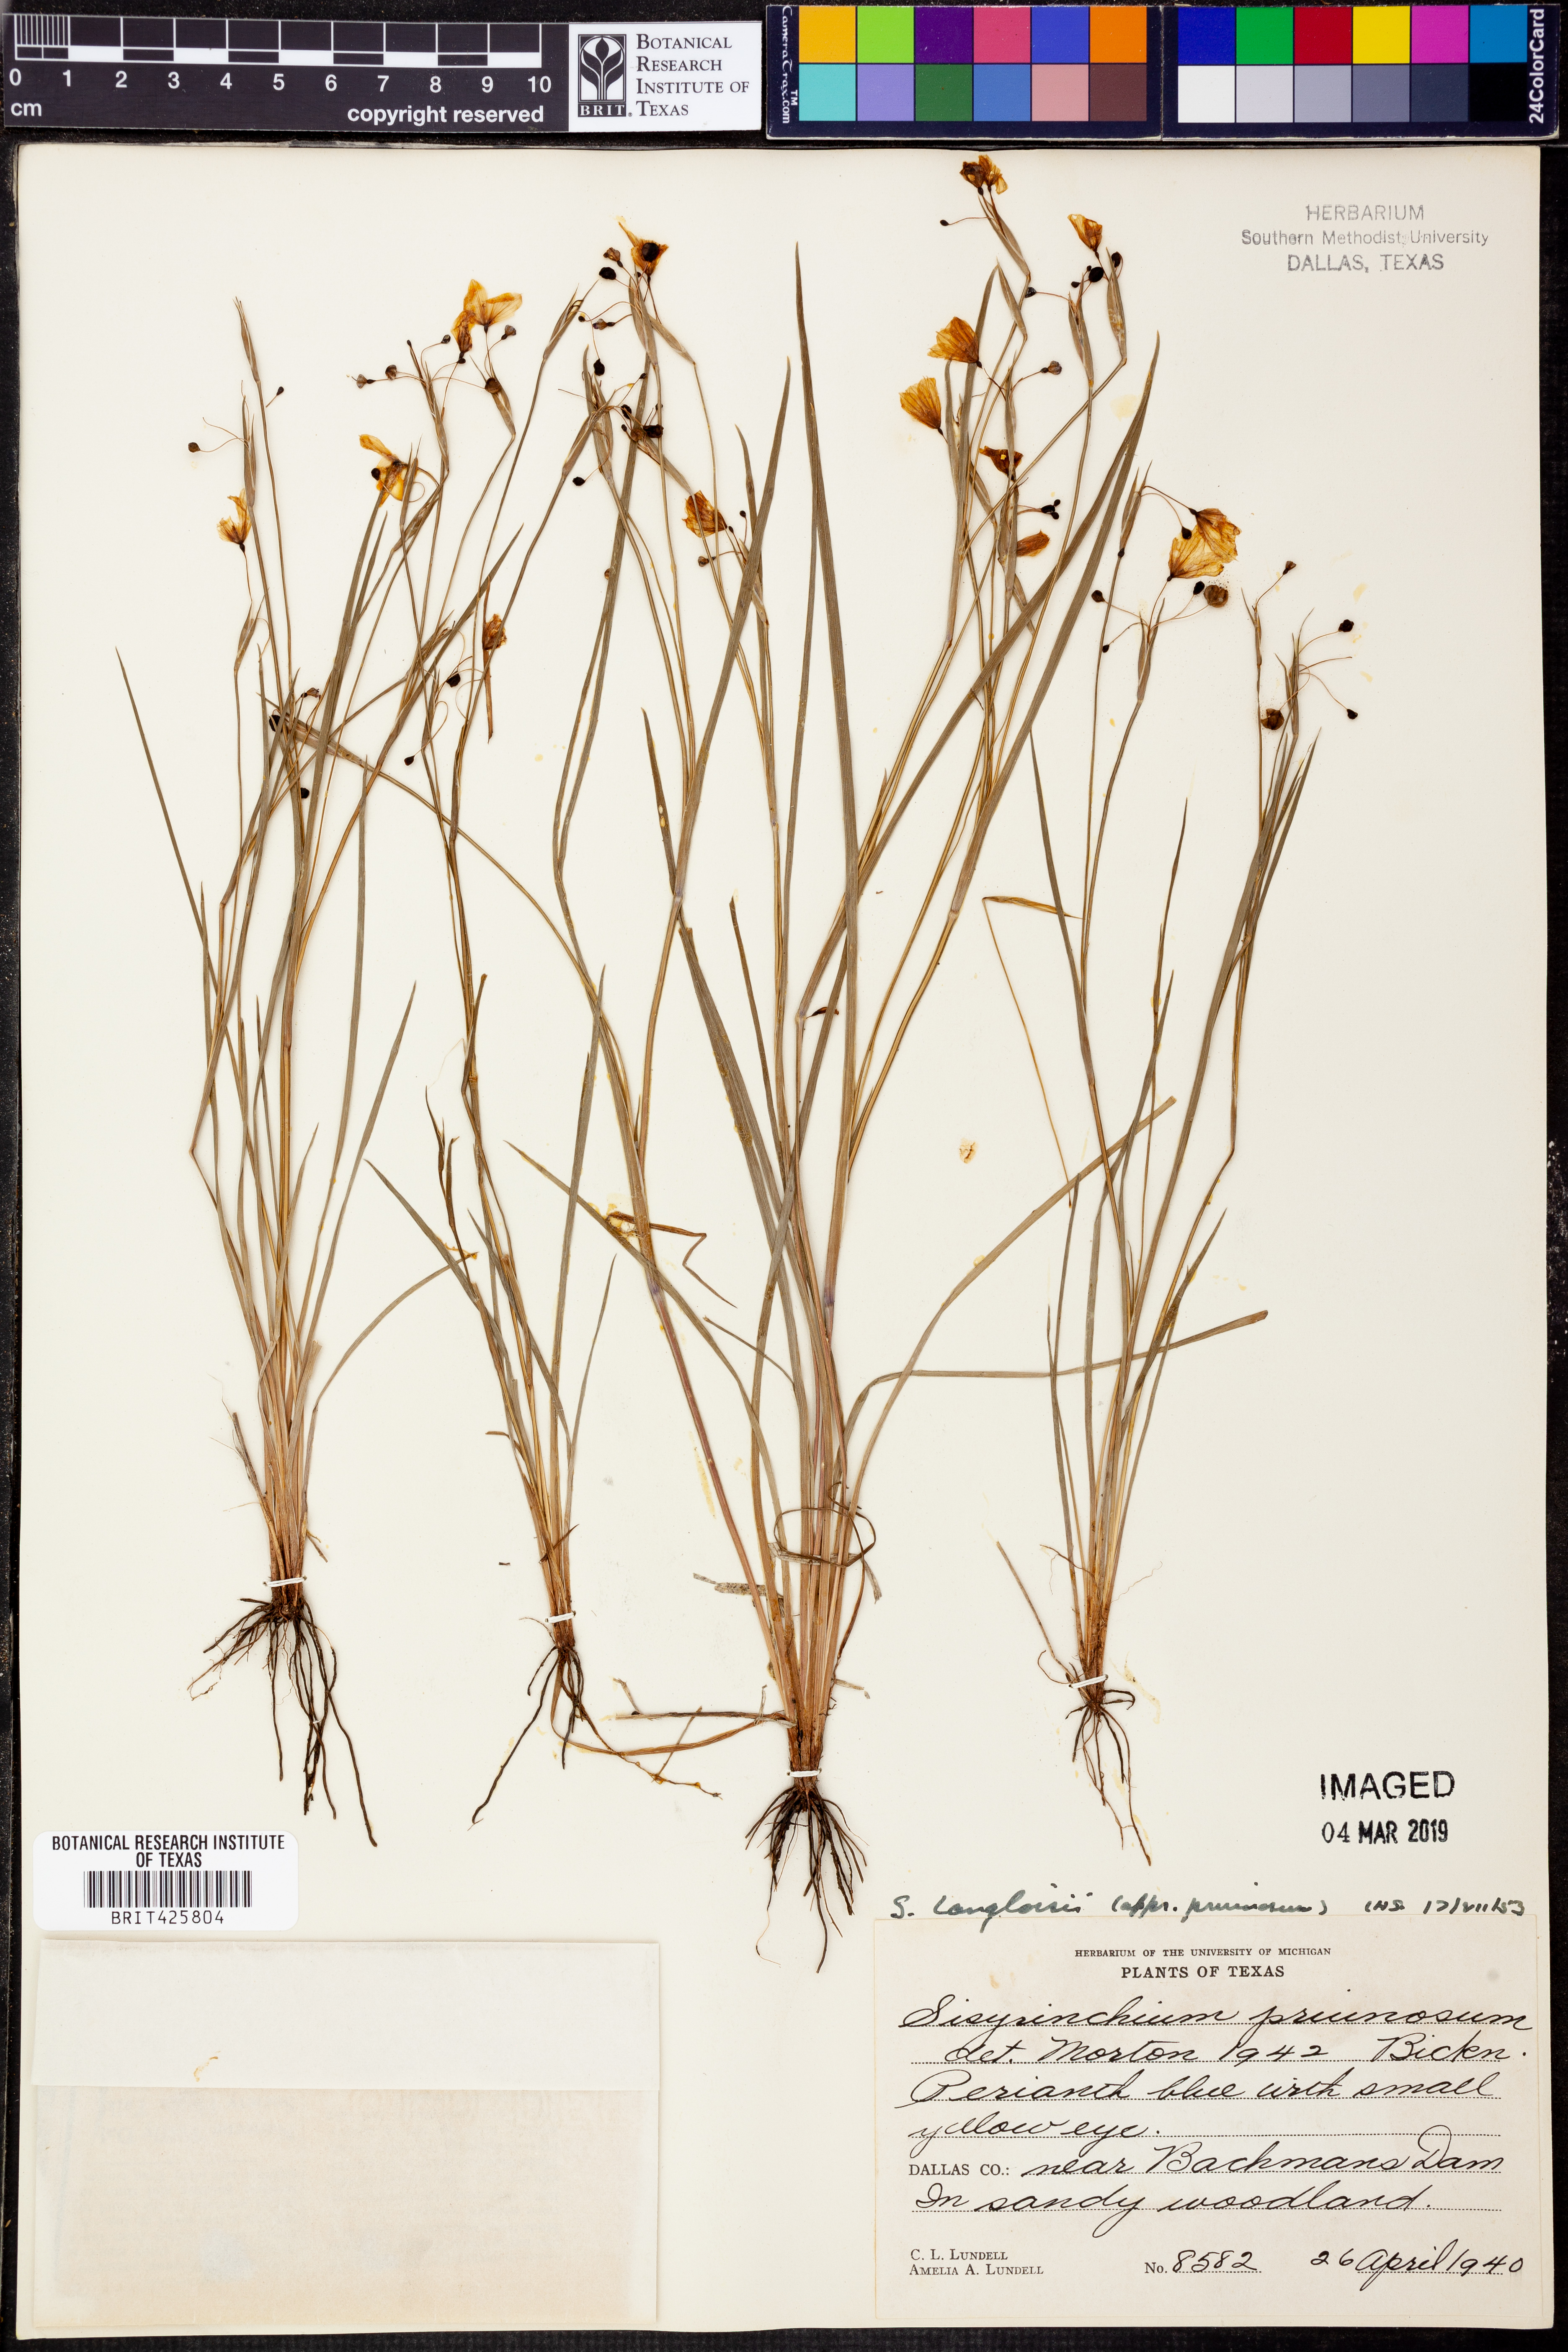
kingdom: Plantae
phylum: Tracheophyta
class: Liliopsida
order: Asparagales
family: Iridaceae
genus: Sisyrinchium
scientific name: Sisyrinchium langloisii
